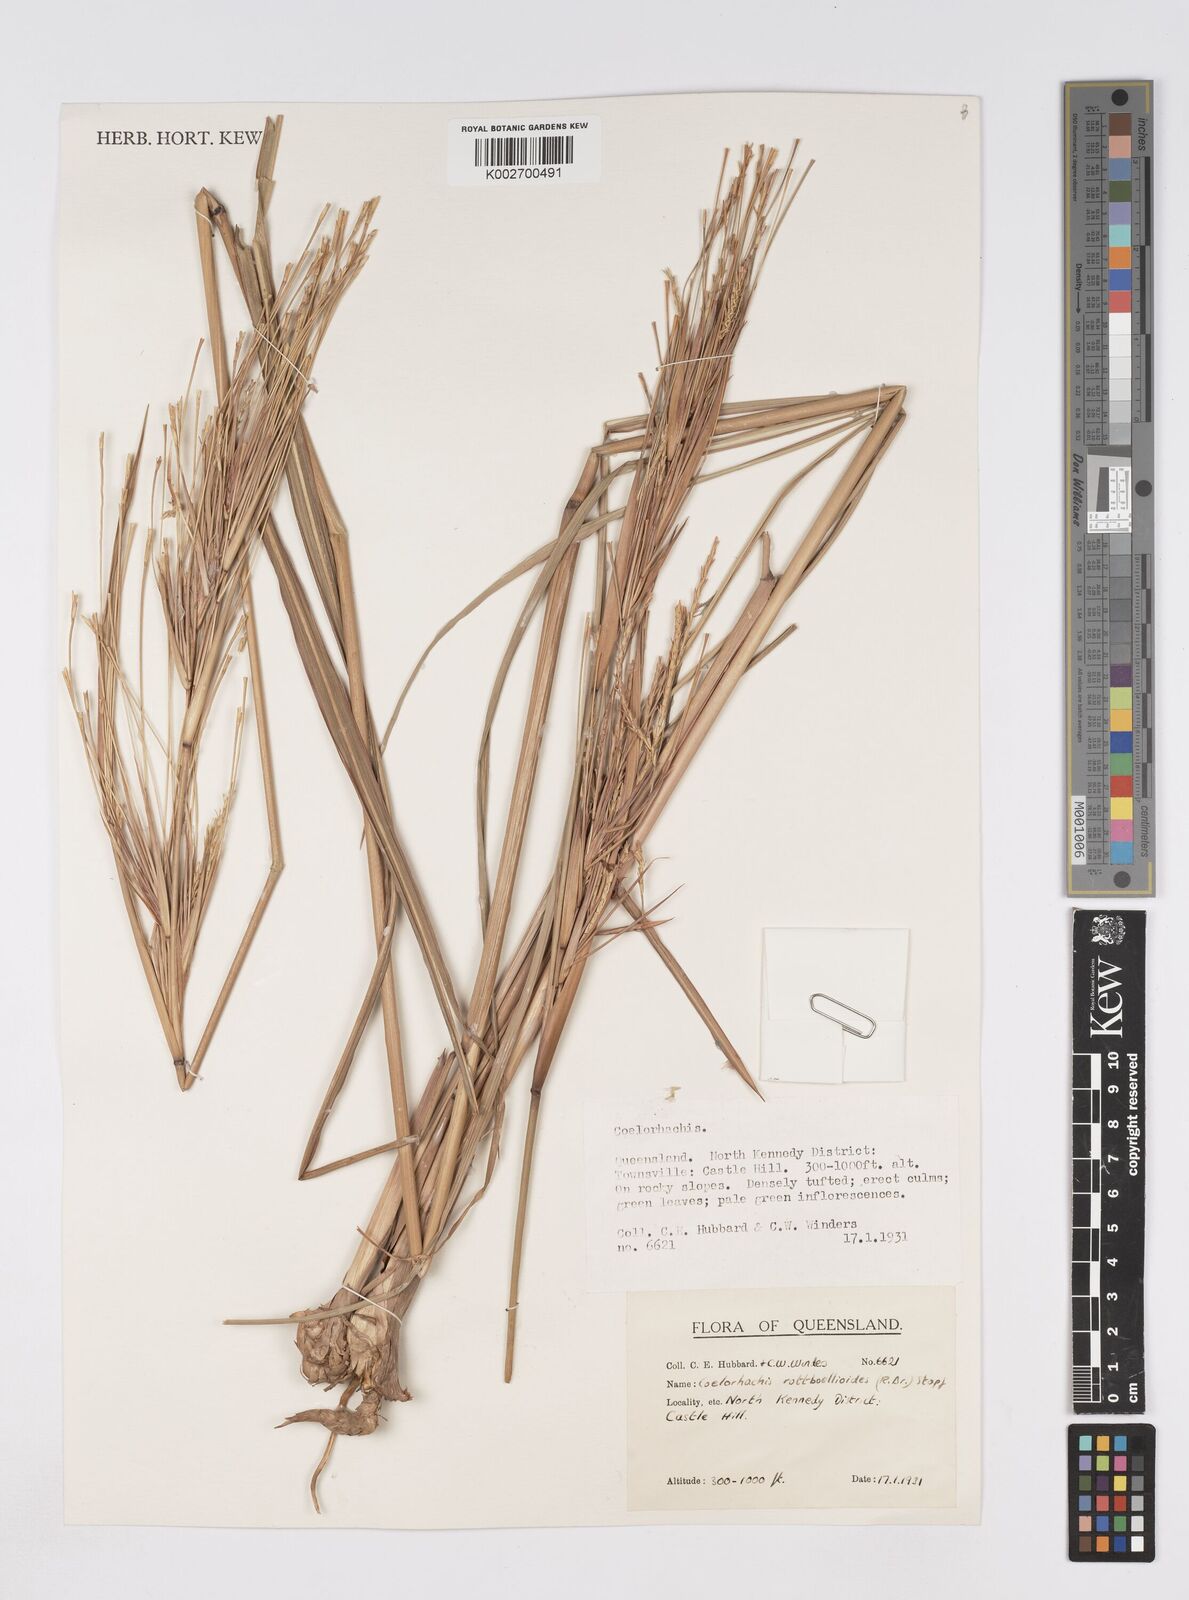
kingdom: Plantae
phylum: Tracheophyta
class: Liliopsida
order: Poales
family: Poaceae
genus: Rottboellia
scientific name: Rottboellia rottboellioides
